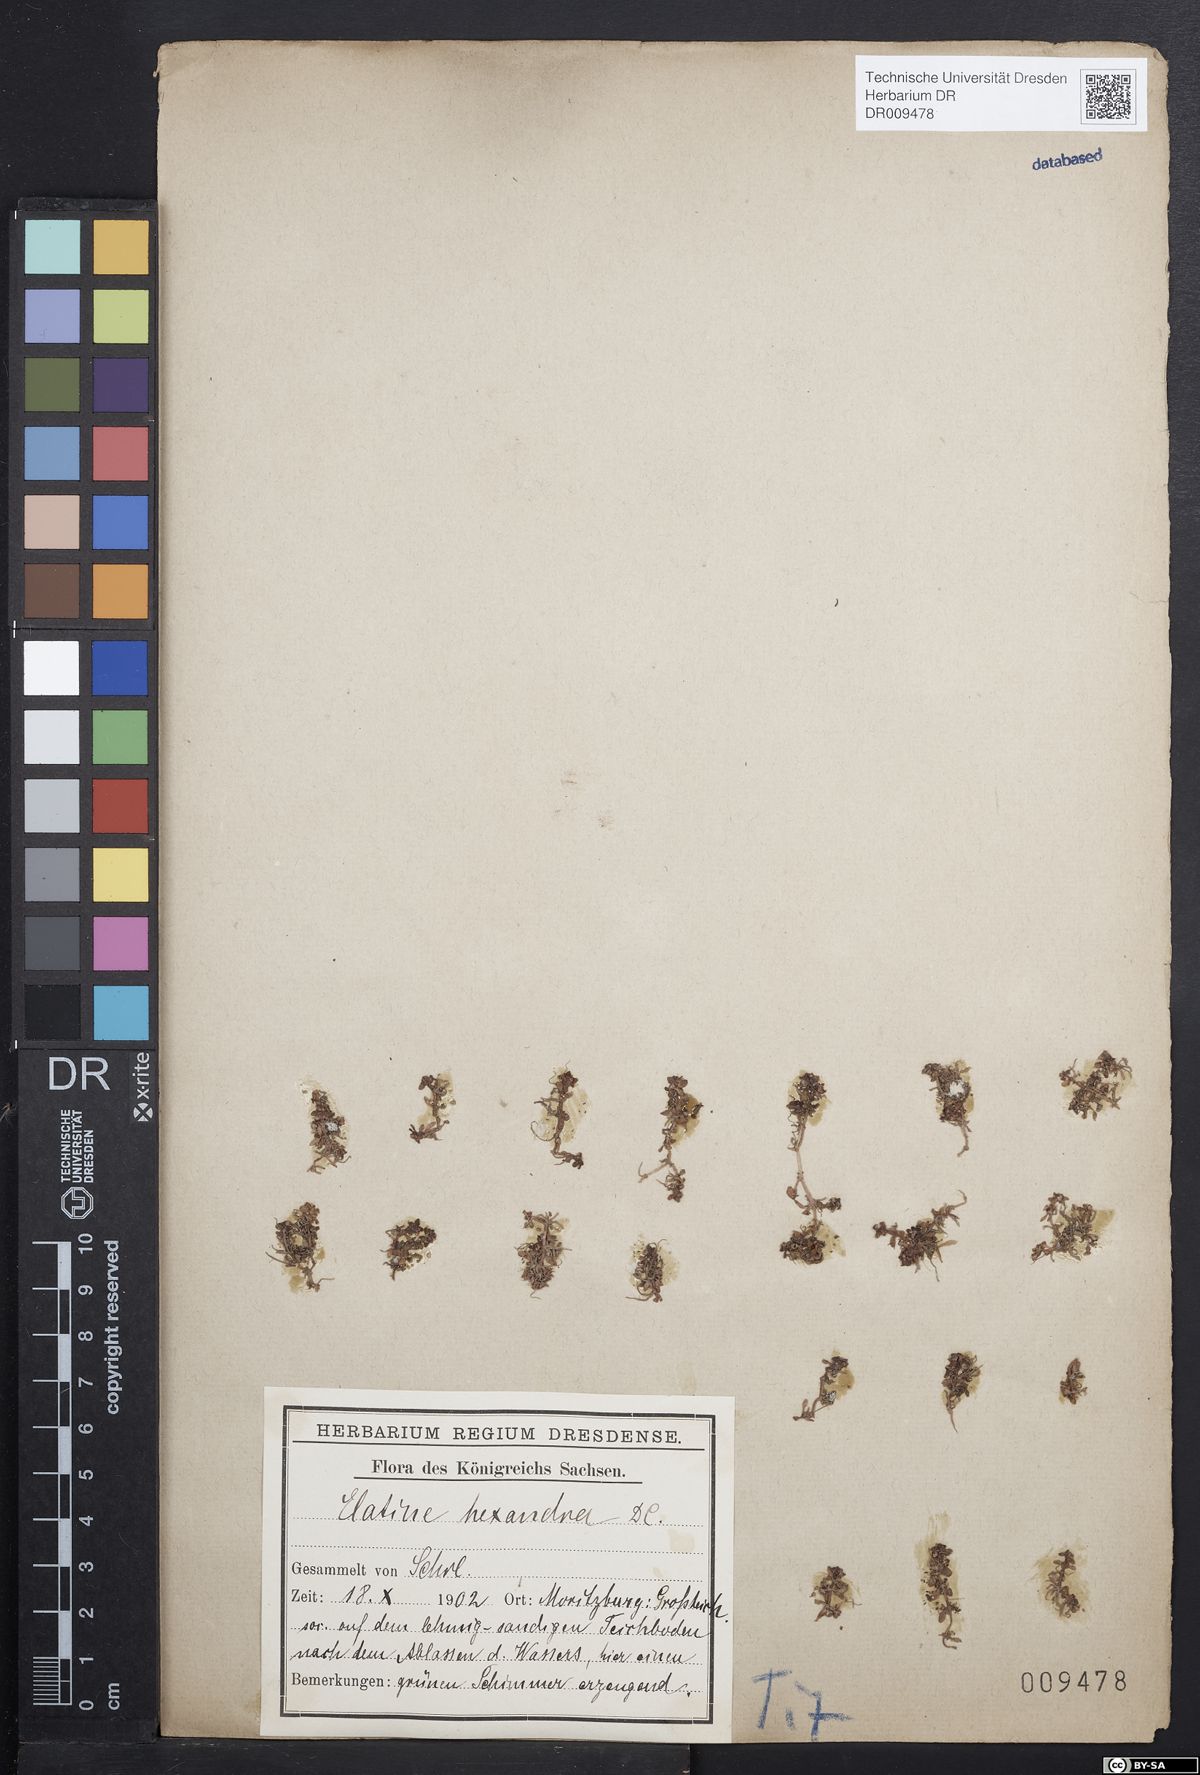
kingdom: Plantae
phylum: Tracheophyta
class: Magnoliopsida
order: Malpighiales
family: Elatinaceae
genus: Elatine
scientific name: Elatine hexandra
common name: Six-stamened waterwort
